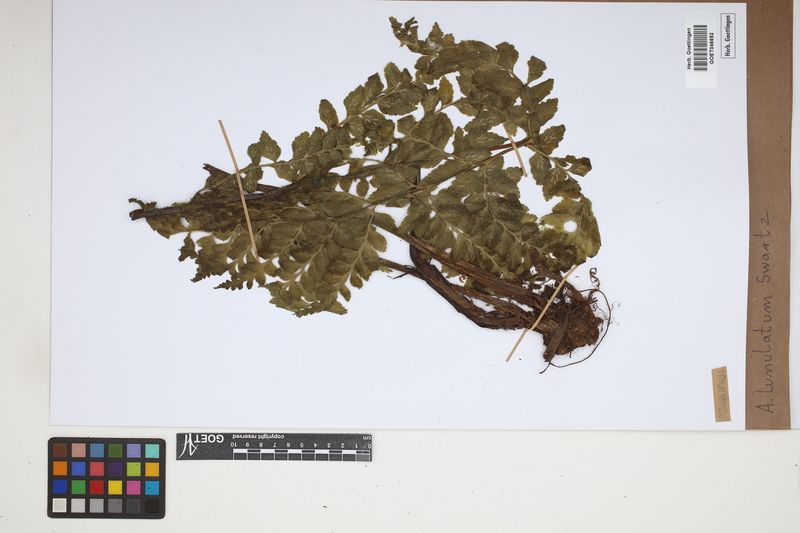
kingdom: Plantae
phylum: Tracheophyta
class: Polypodiopsida
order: Polypodiales
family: Aspleniaceae
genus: Asplenium
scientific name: Asplenium lunulatum
